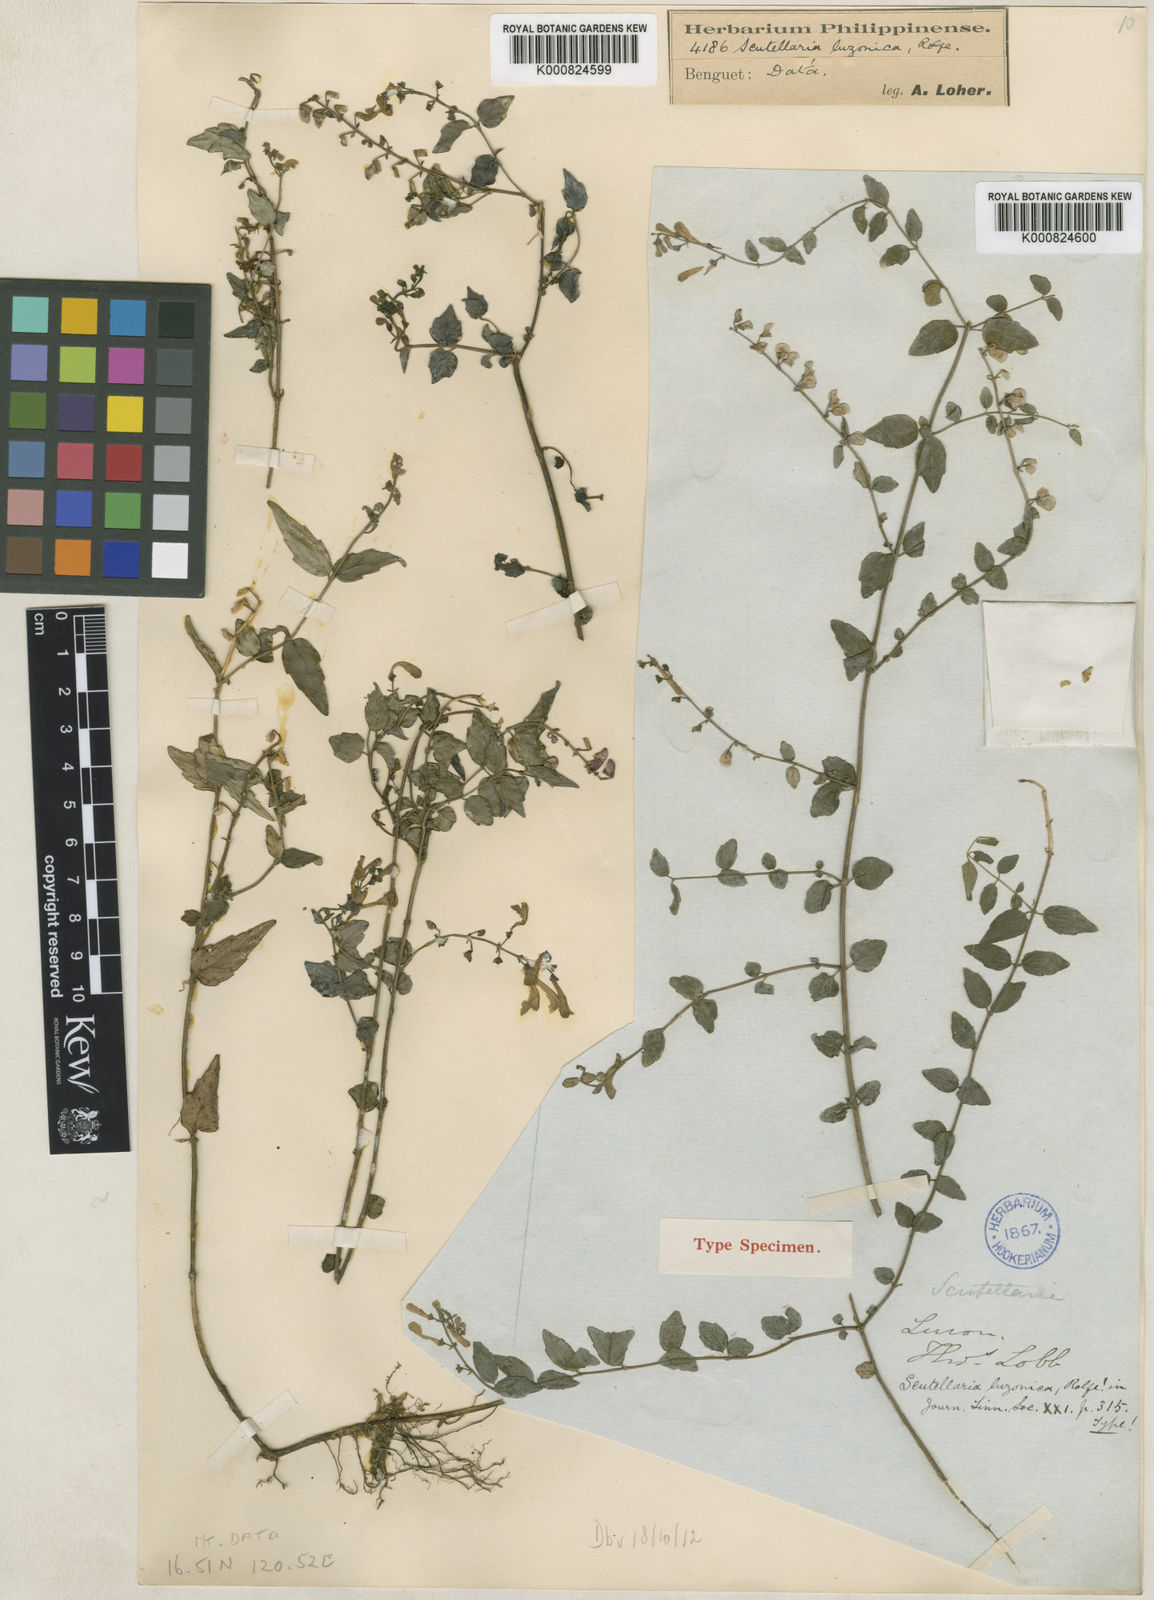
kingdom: Plantae
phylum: Tracheophyta
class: Magnoliopsida
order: Lamiales
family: Lamiaceae
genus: Scutellaria
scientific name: Scutellaria javanica
